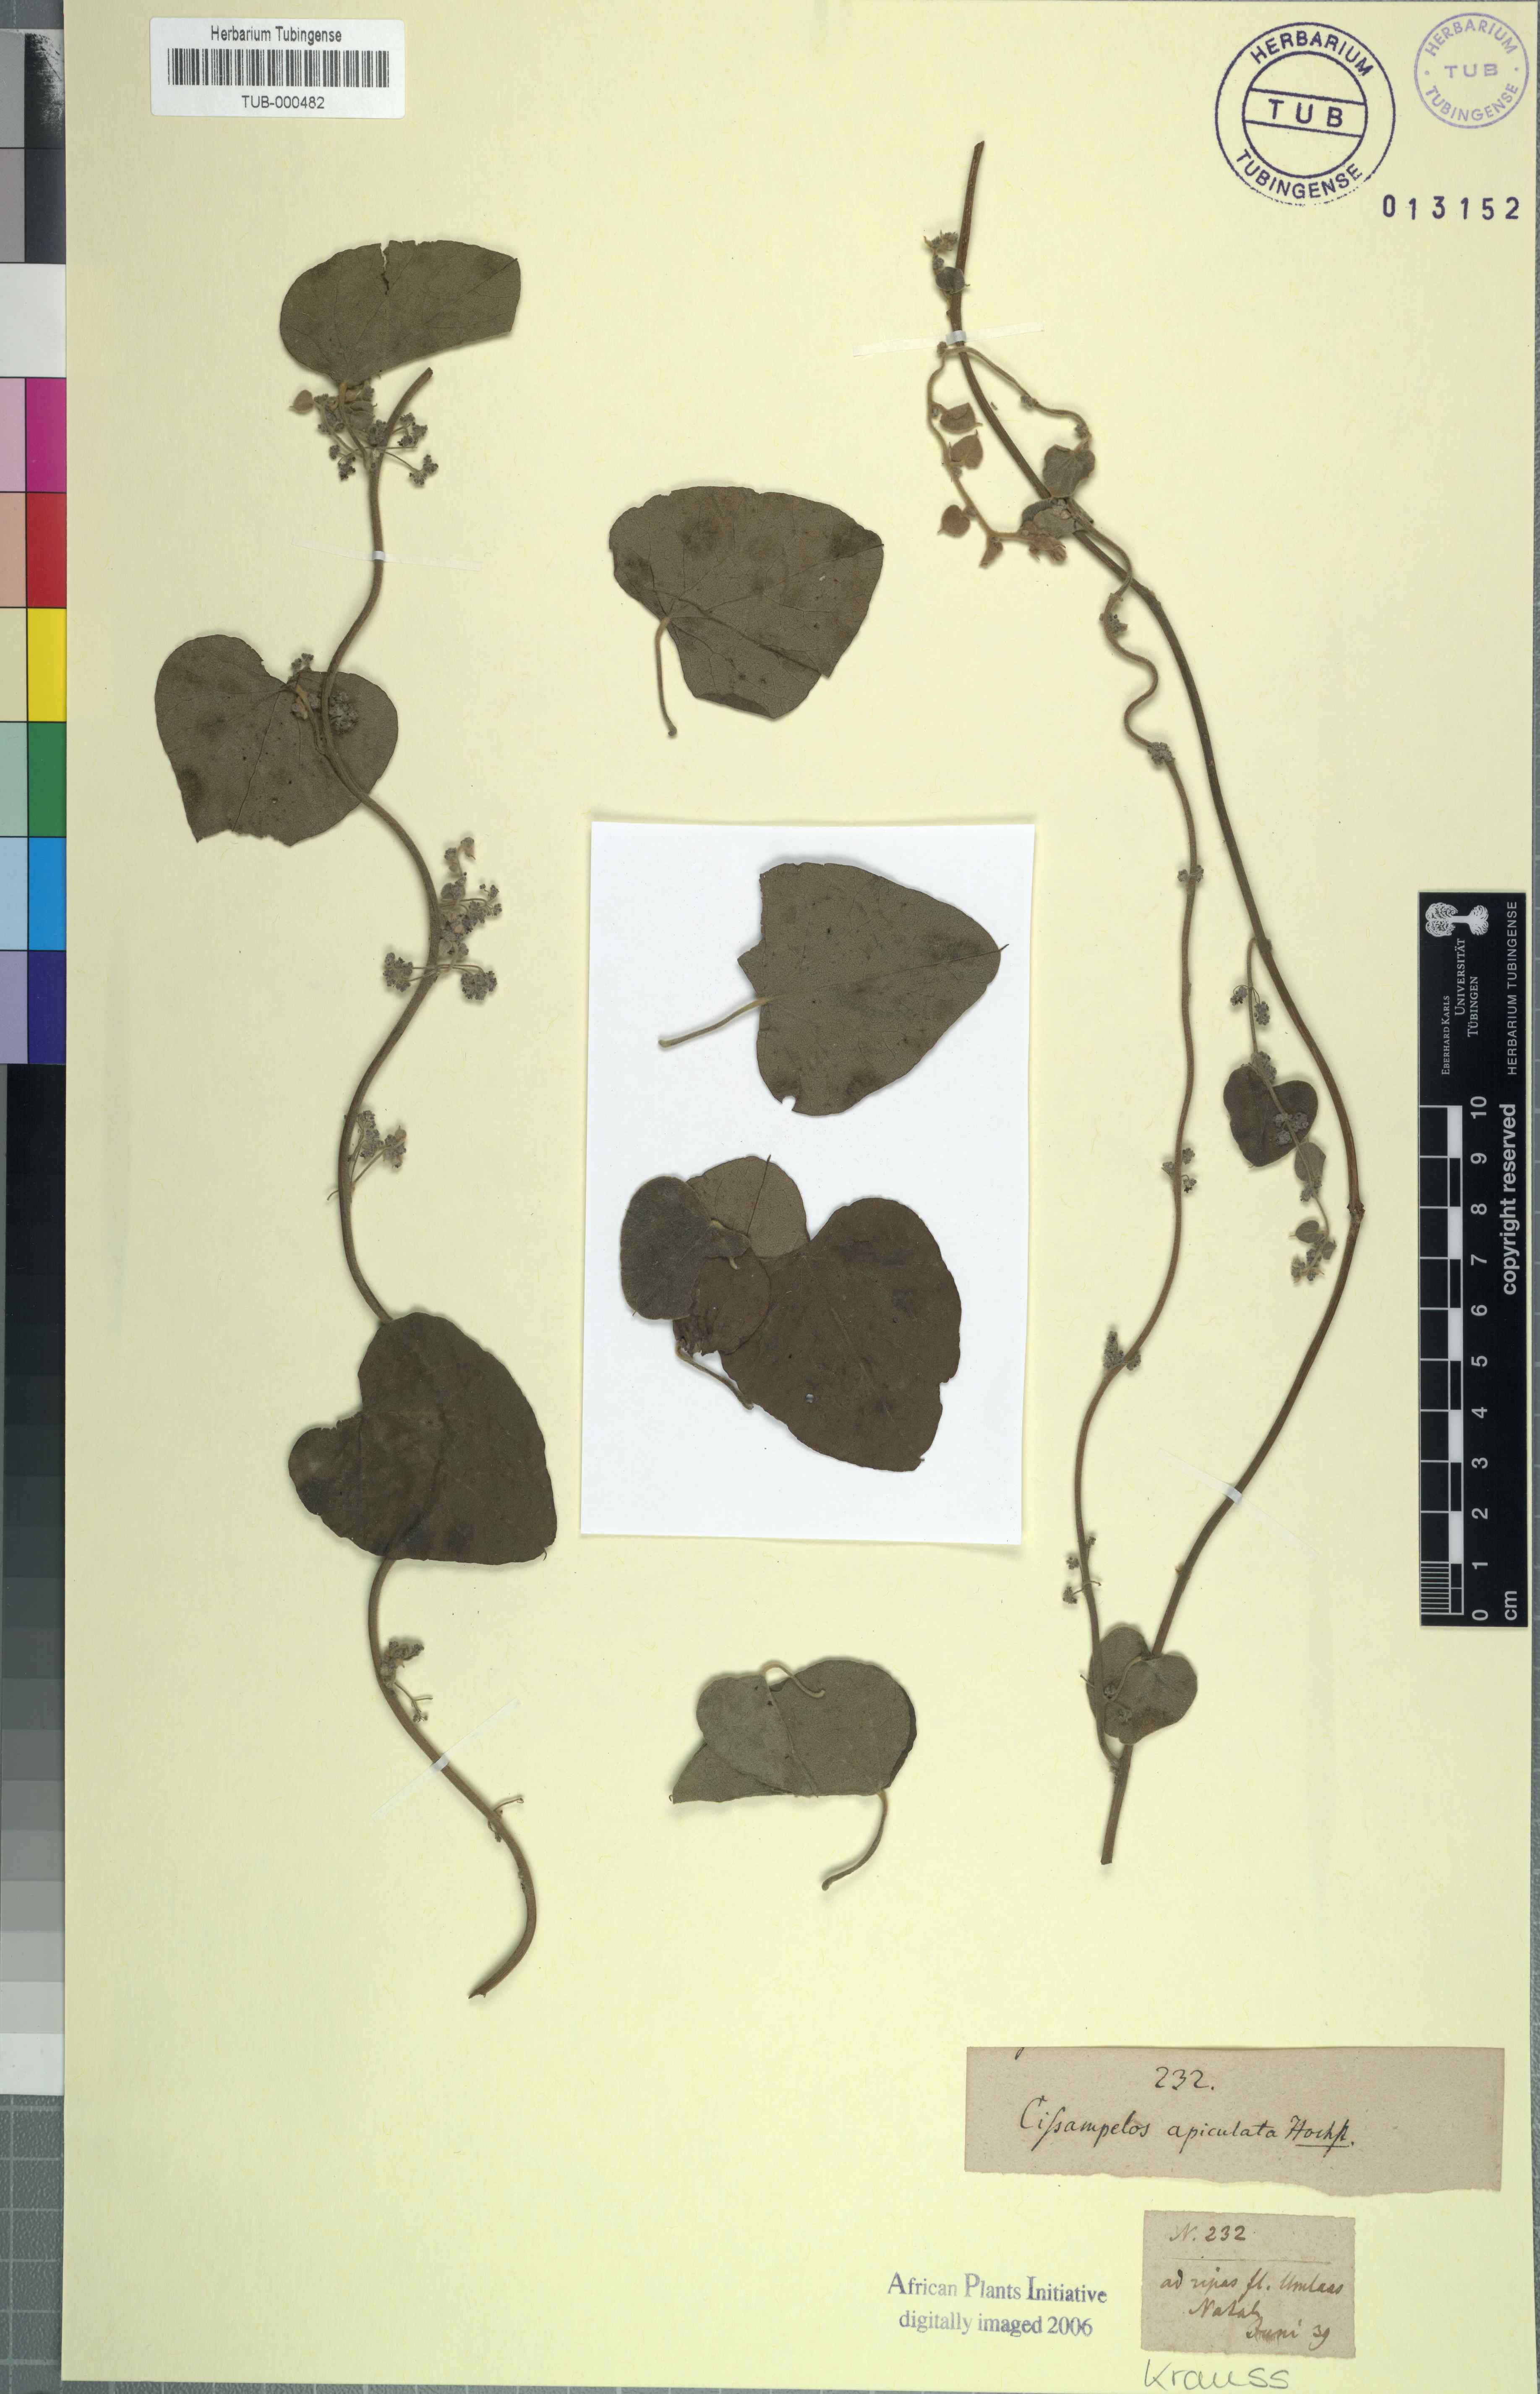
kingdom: Plantae
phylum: Tracheophyta
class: Magnoliopsida
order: Ranunculales
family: Menispermaceae
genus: Cissampelos
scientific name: Cissampelos pareira
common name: Velvetleaf
